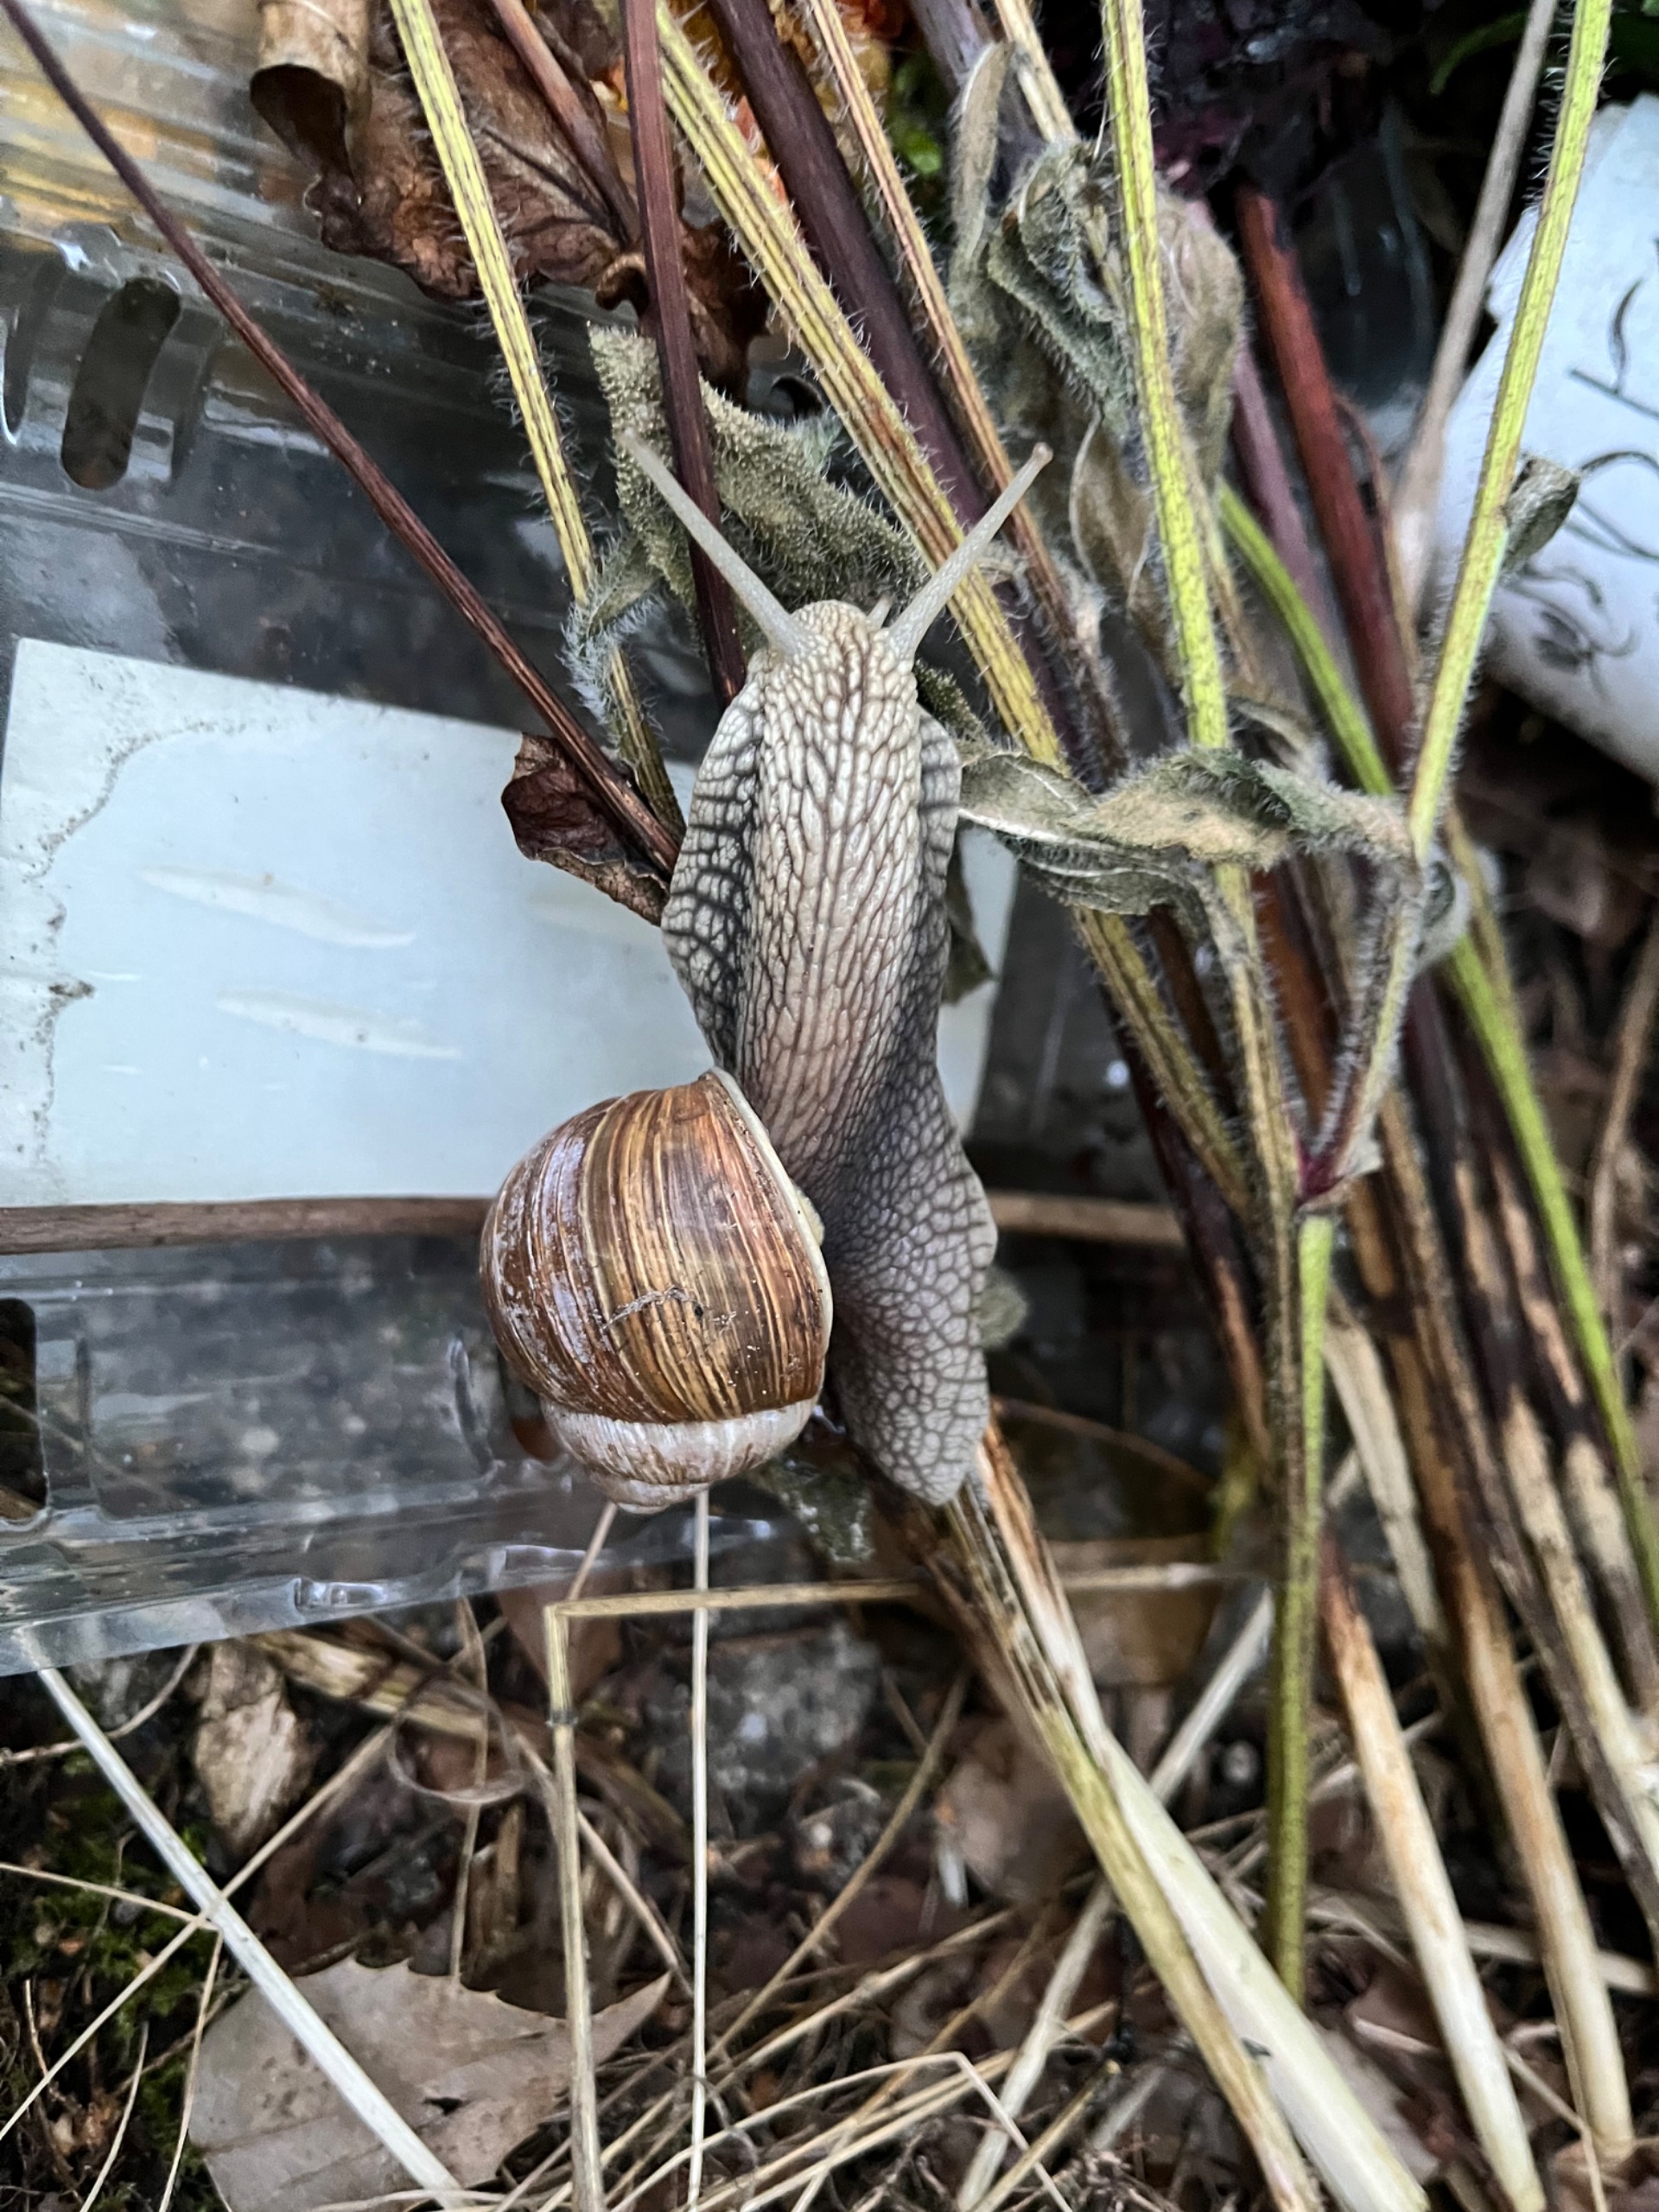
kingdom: Animalia
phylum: Mollusca
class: Gastropoda
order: Stylommatophora
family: Helicidae
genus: Helix
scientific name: Helix pomatia
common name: Vinbjergsnegl
